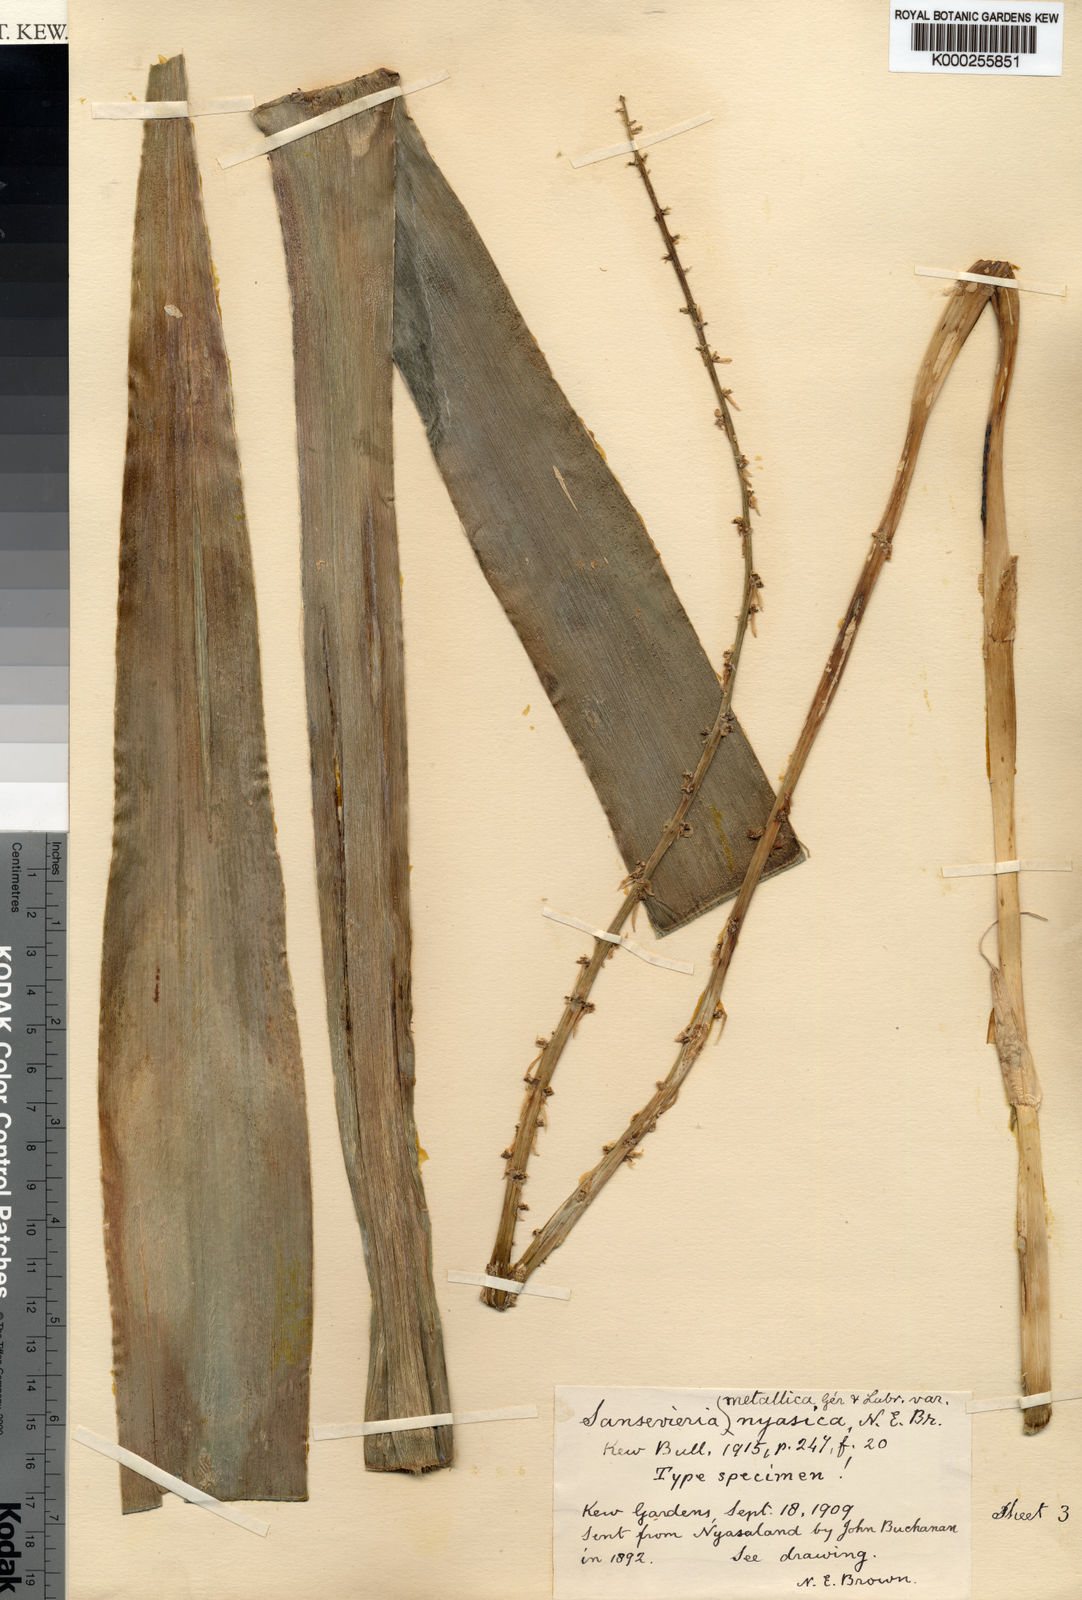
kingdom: Plantae
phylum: Tracheophyta
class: Liliopsida
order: Asparagales
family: Asparagaceae
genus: Dracaena
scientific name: Dracaena zebra
